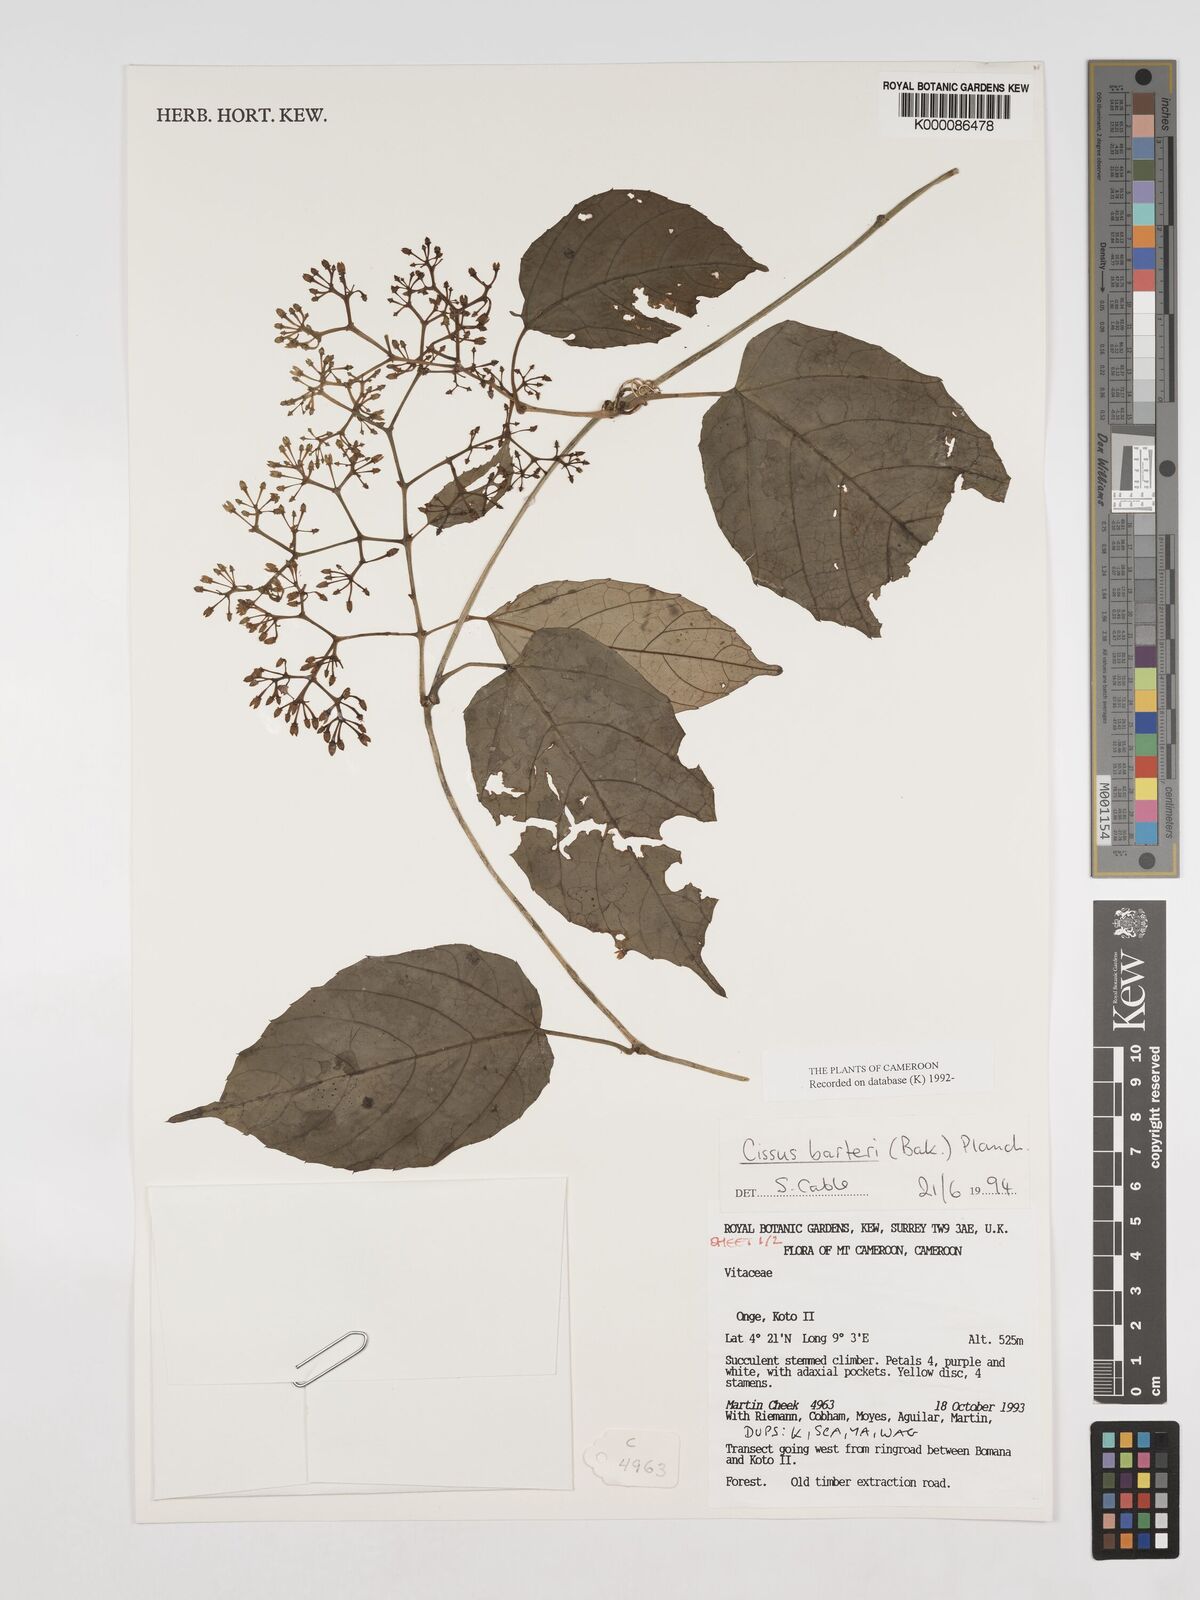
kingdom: Plantae
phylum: Tracheophyta
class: Magnoliopsida
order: Vitales
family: Vitaceae
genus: Cissus
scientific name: Cissus barteri
